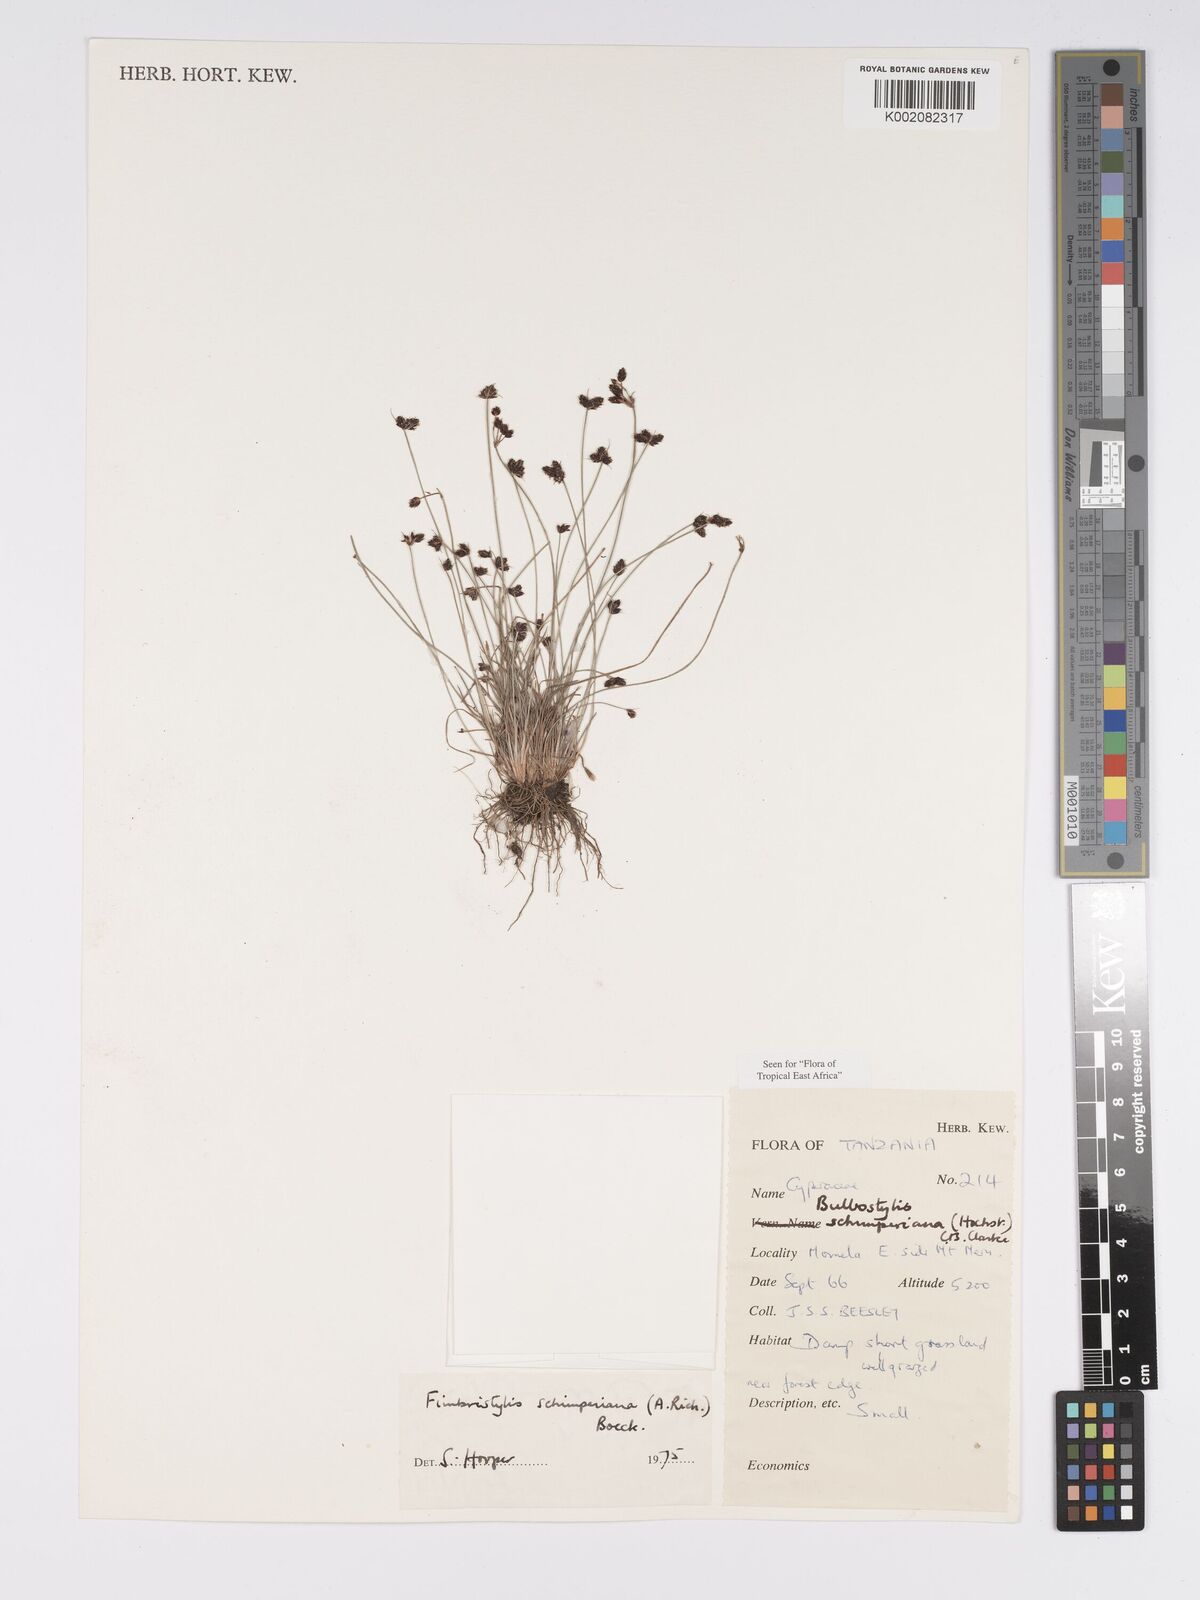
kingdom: Plantae
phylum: Tracheophyta
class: Liliopsida
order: Poales
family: Cyperaceae
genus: Bulbostylis
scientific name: Bulbostylis schimperiana
